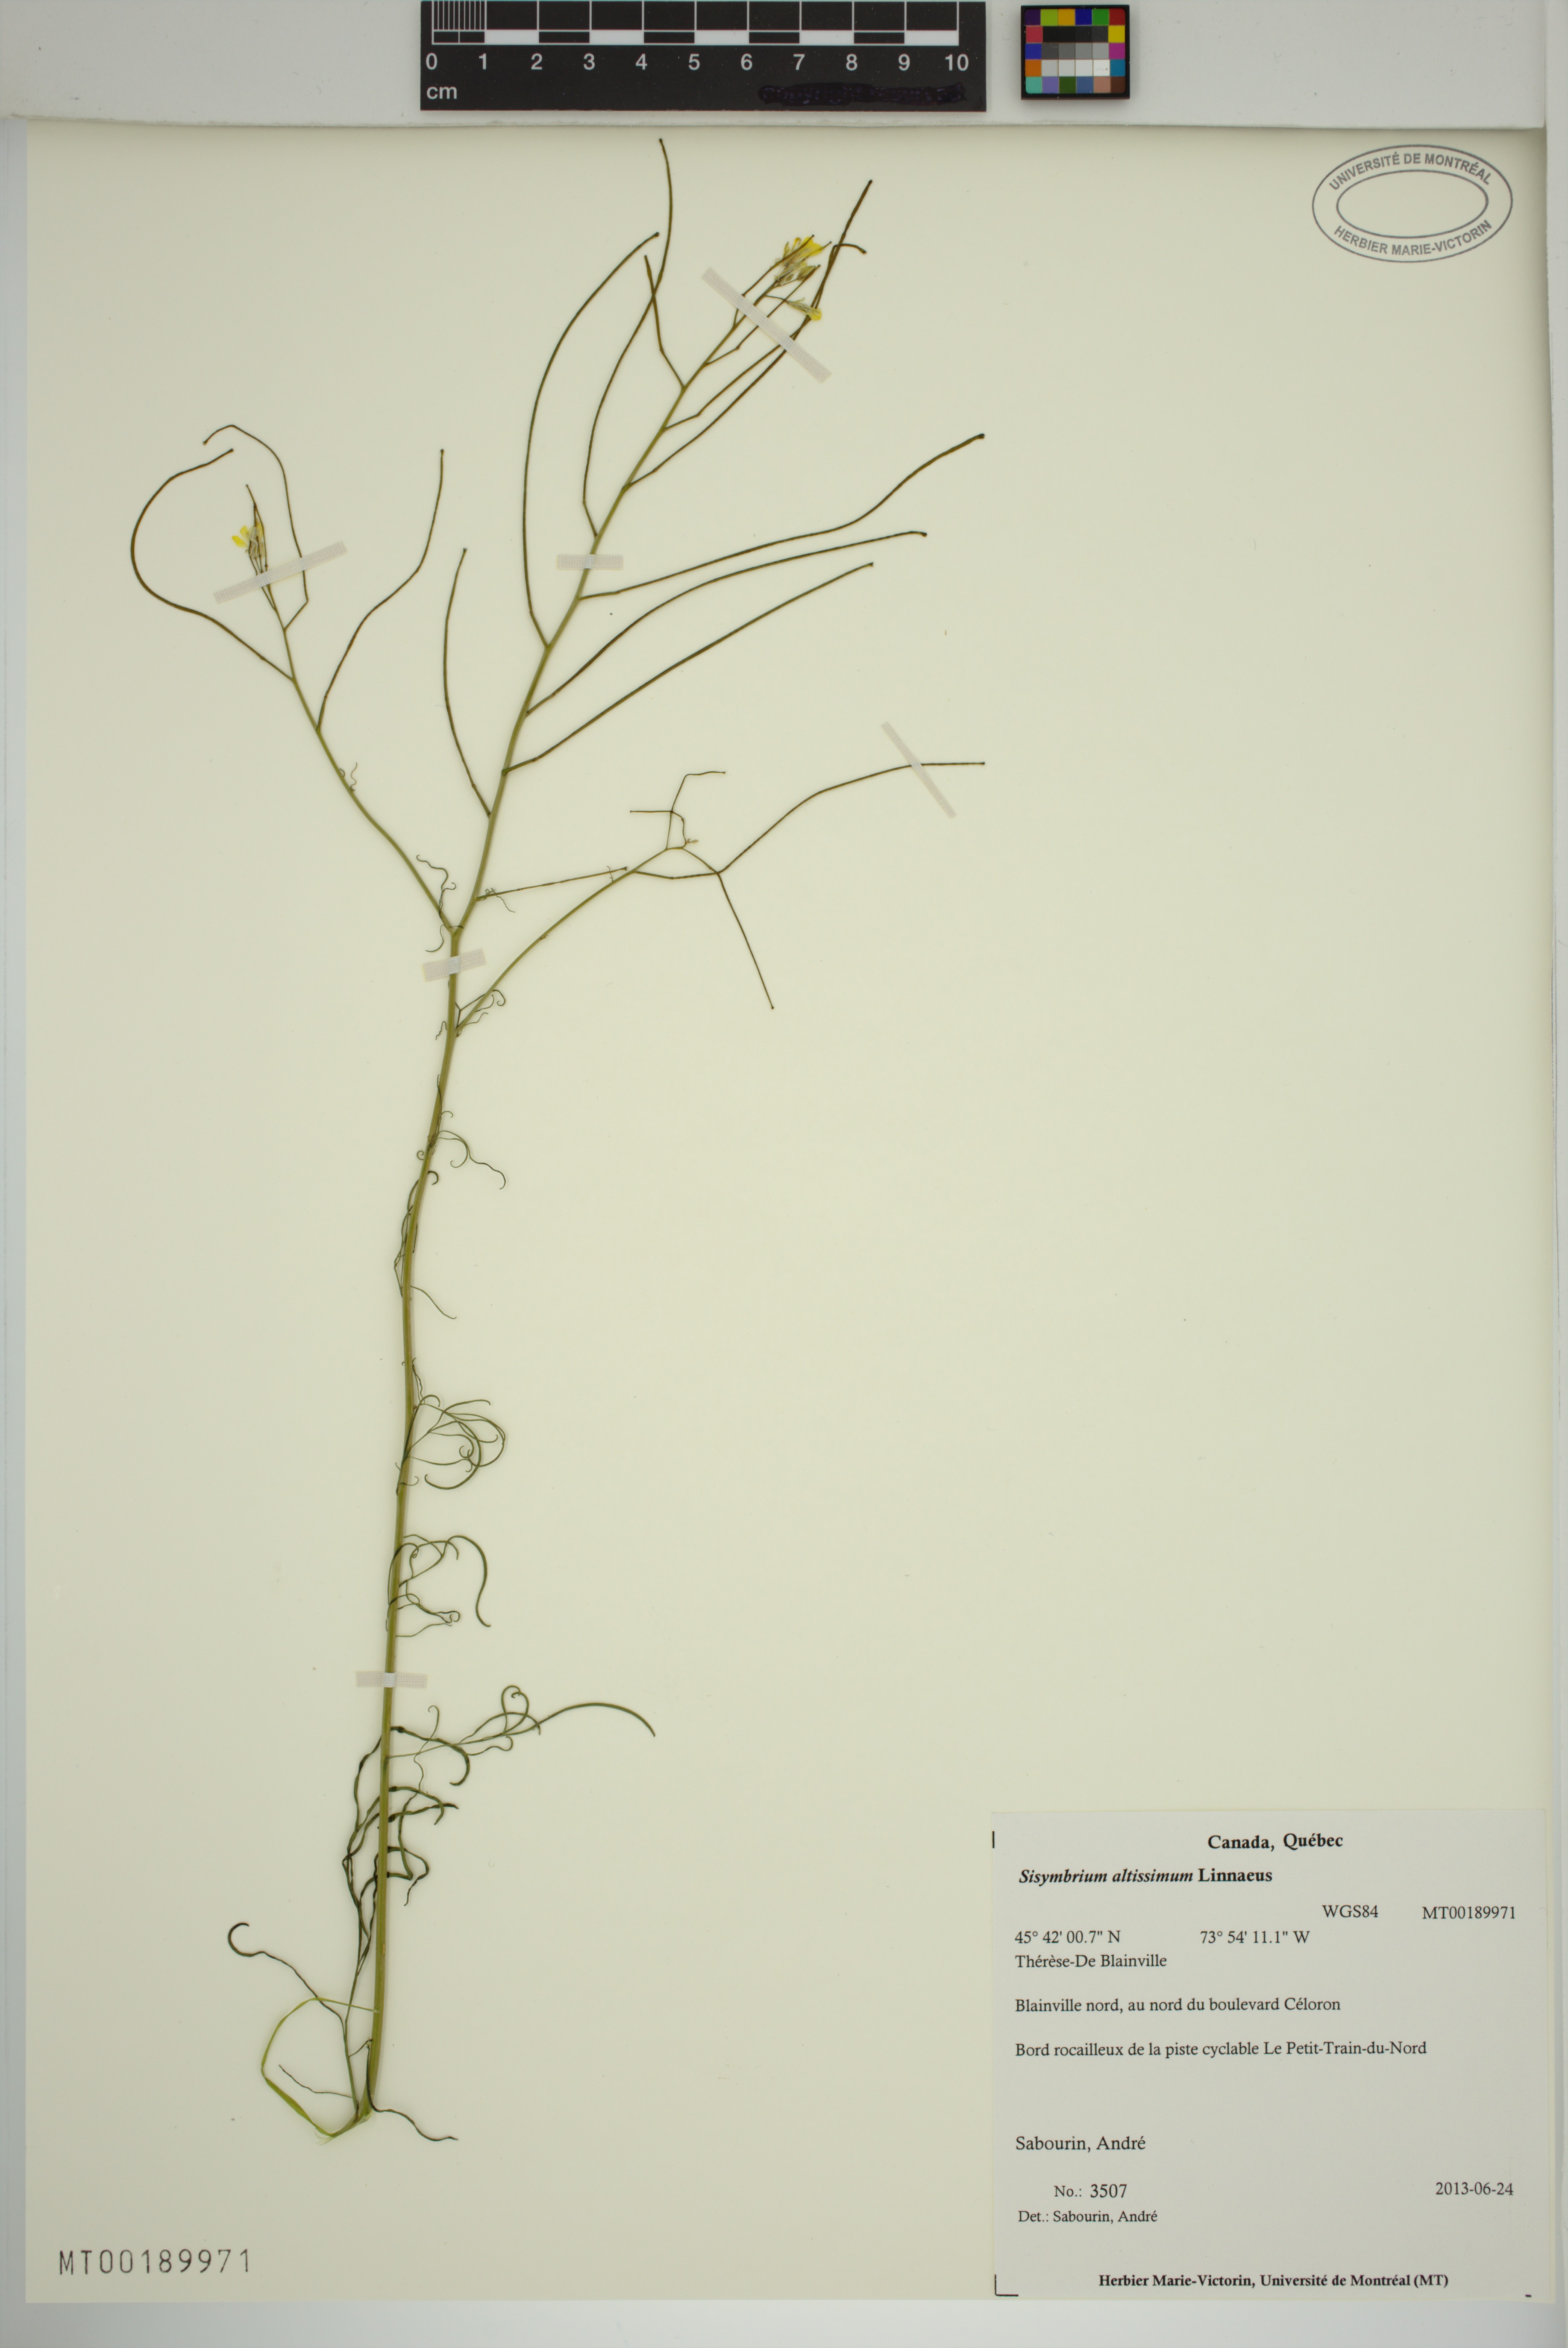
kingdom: Plantae
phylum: Tracheophyta
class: Magnoliopsida
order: Brassicales
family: Brassicaceae
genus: Sisymbrium
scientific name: Sisymbrium altissimum
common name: Tall rocket
